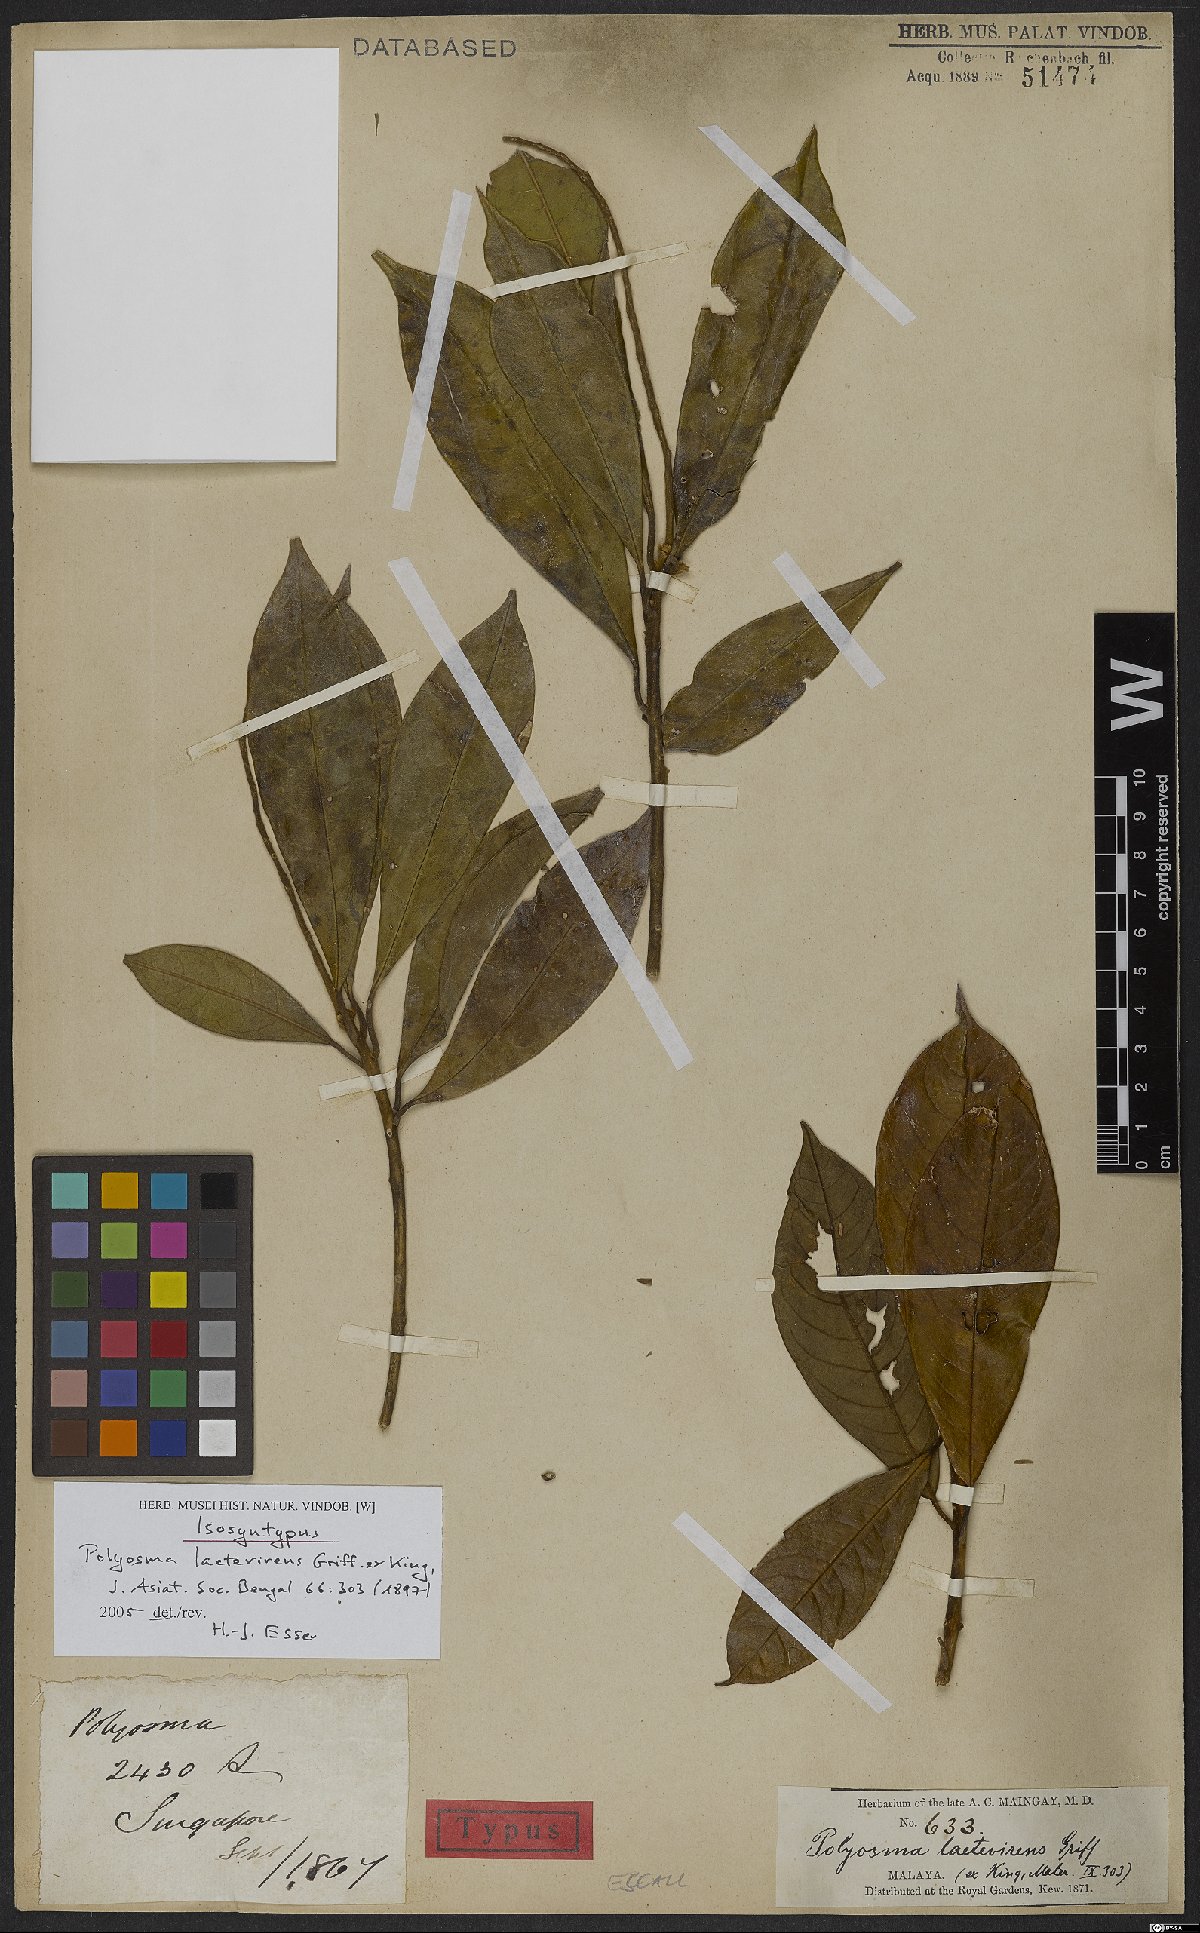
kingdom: Plantae
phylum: Tracheophyta
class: Magnoliopsida
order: Escalloniales
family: Escalloniaceae
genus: Polyosma
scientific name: Polyosma laetevirens
